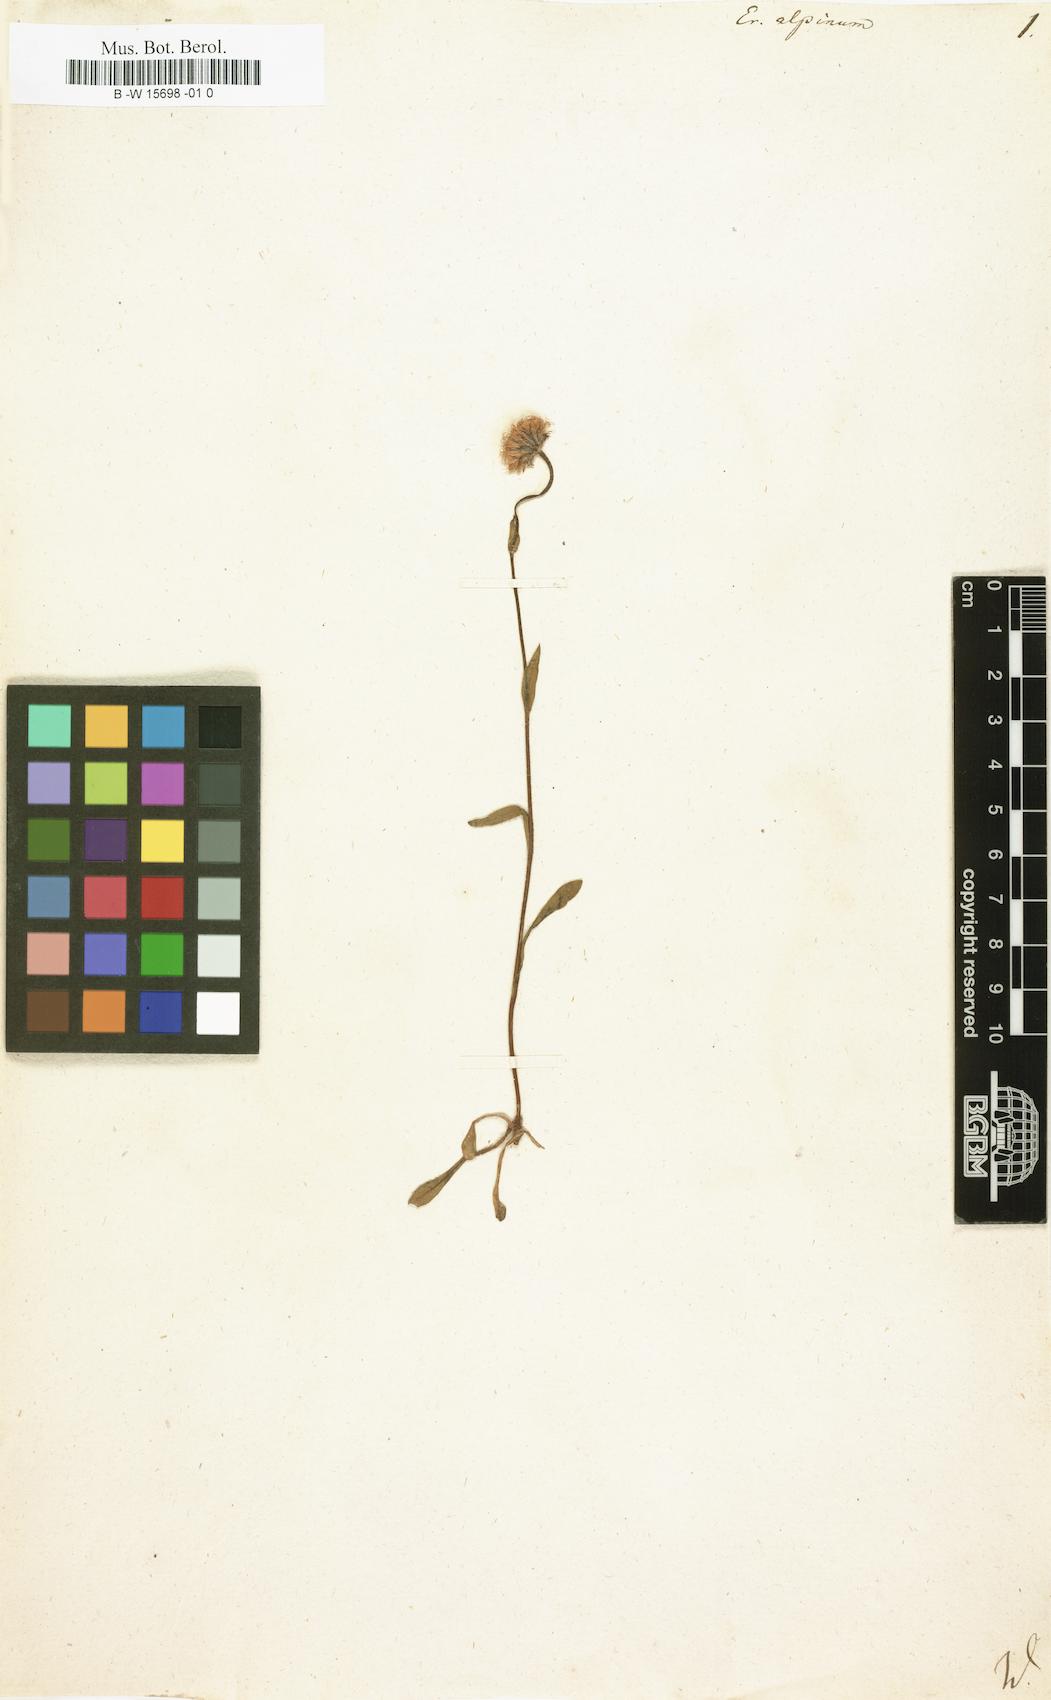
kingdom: Plantae
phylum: Tracheophyta
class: Magnoliopsida
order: Asterales
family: Asteraceae
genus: Erigeron
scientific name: Erigeron alpinus
